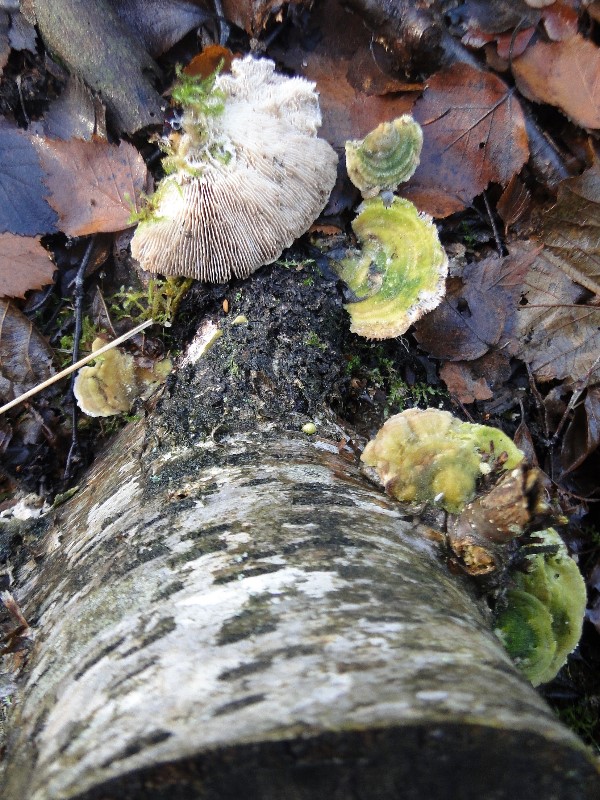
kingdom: Fungi
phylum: Basidiomycota
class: Agaricomycetes
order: Polyporales
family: Polyporaceae
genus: Lenzites
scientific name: Lenzites betulinus
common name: birke-læderporesvamp
